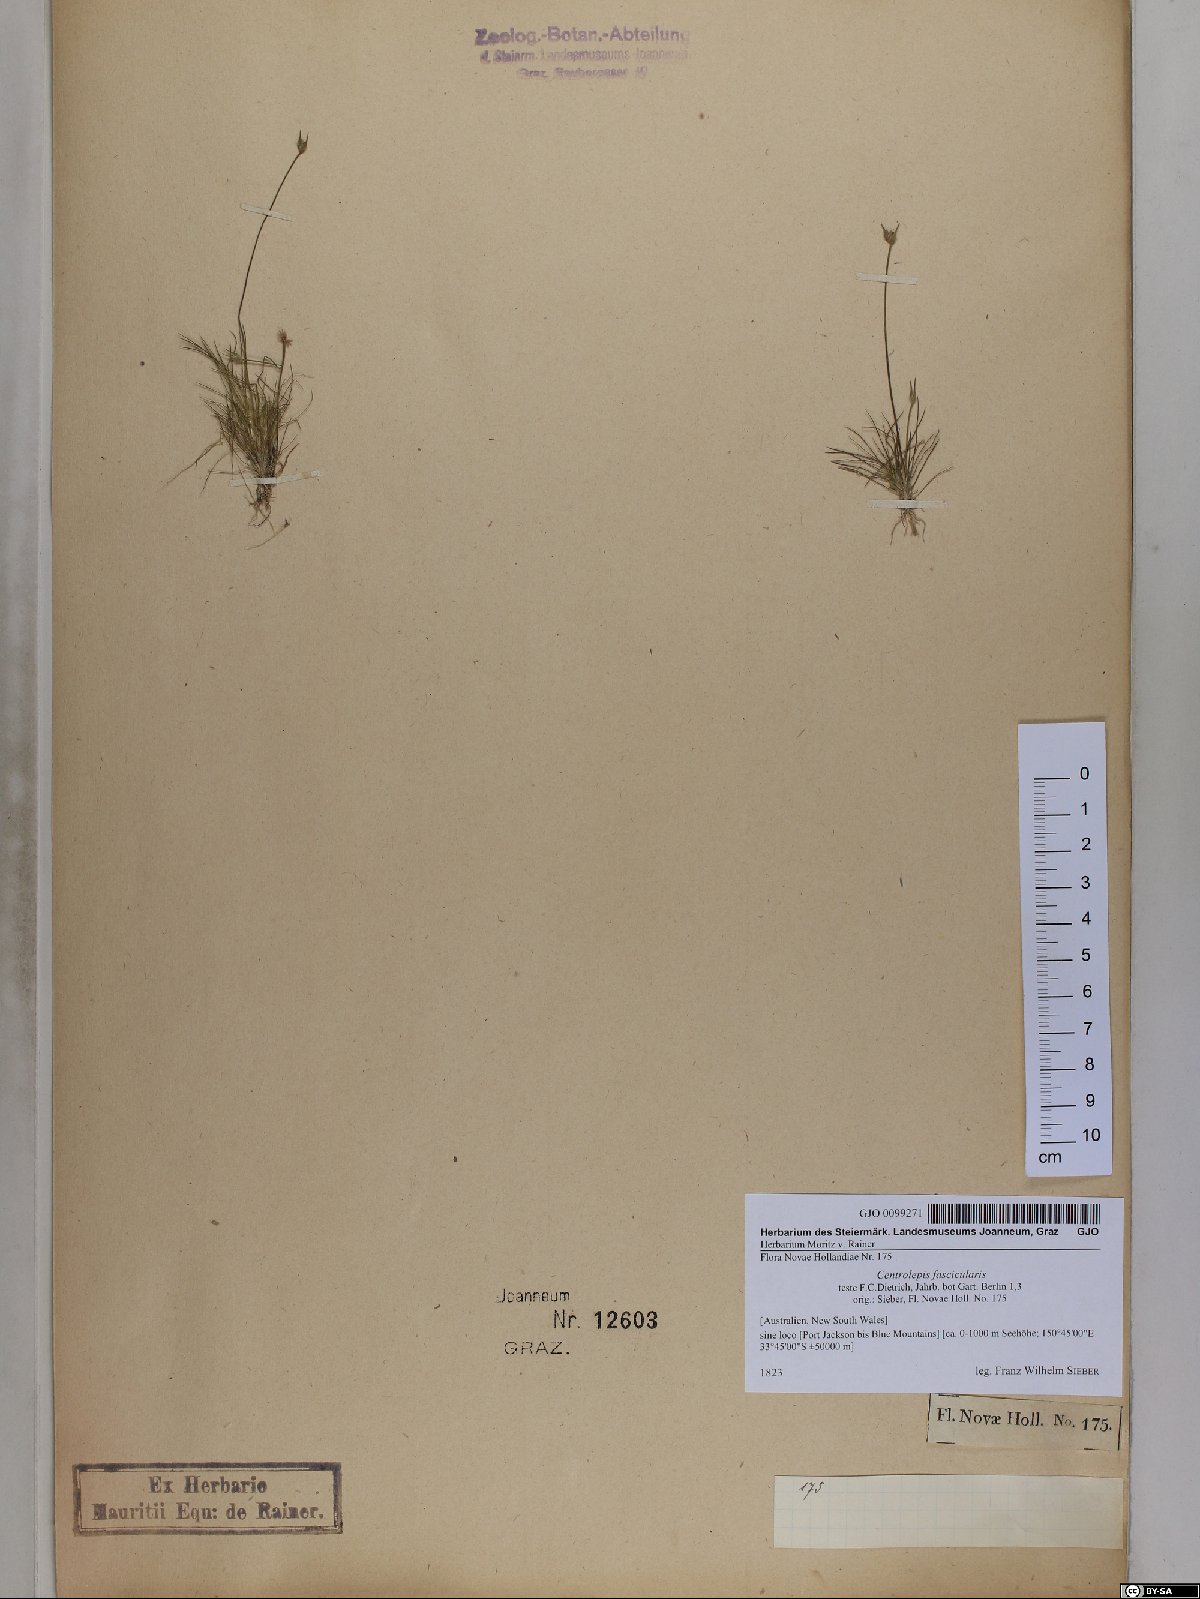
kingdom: Plantae
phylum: Tracheophyta
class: Liliopsida
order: Poales
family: Restionaceae
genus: Centrolepis
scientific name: Centrolepis fascicularis
